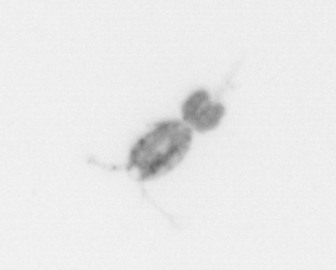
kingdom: Animalia
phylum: Arthropoda
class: Copepoda
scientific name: Copepoda
